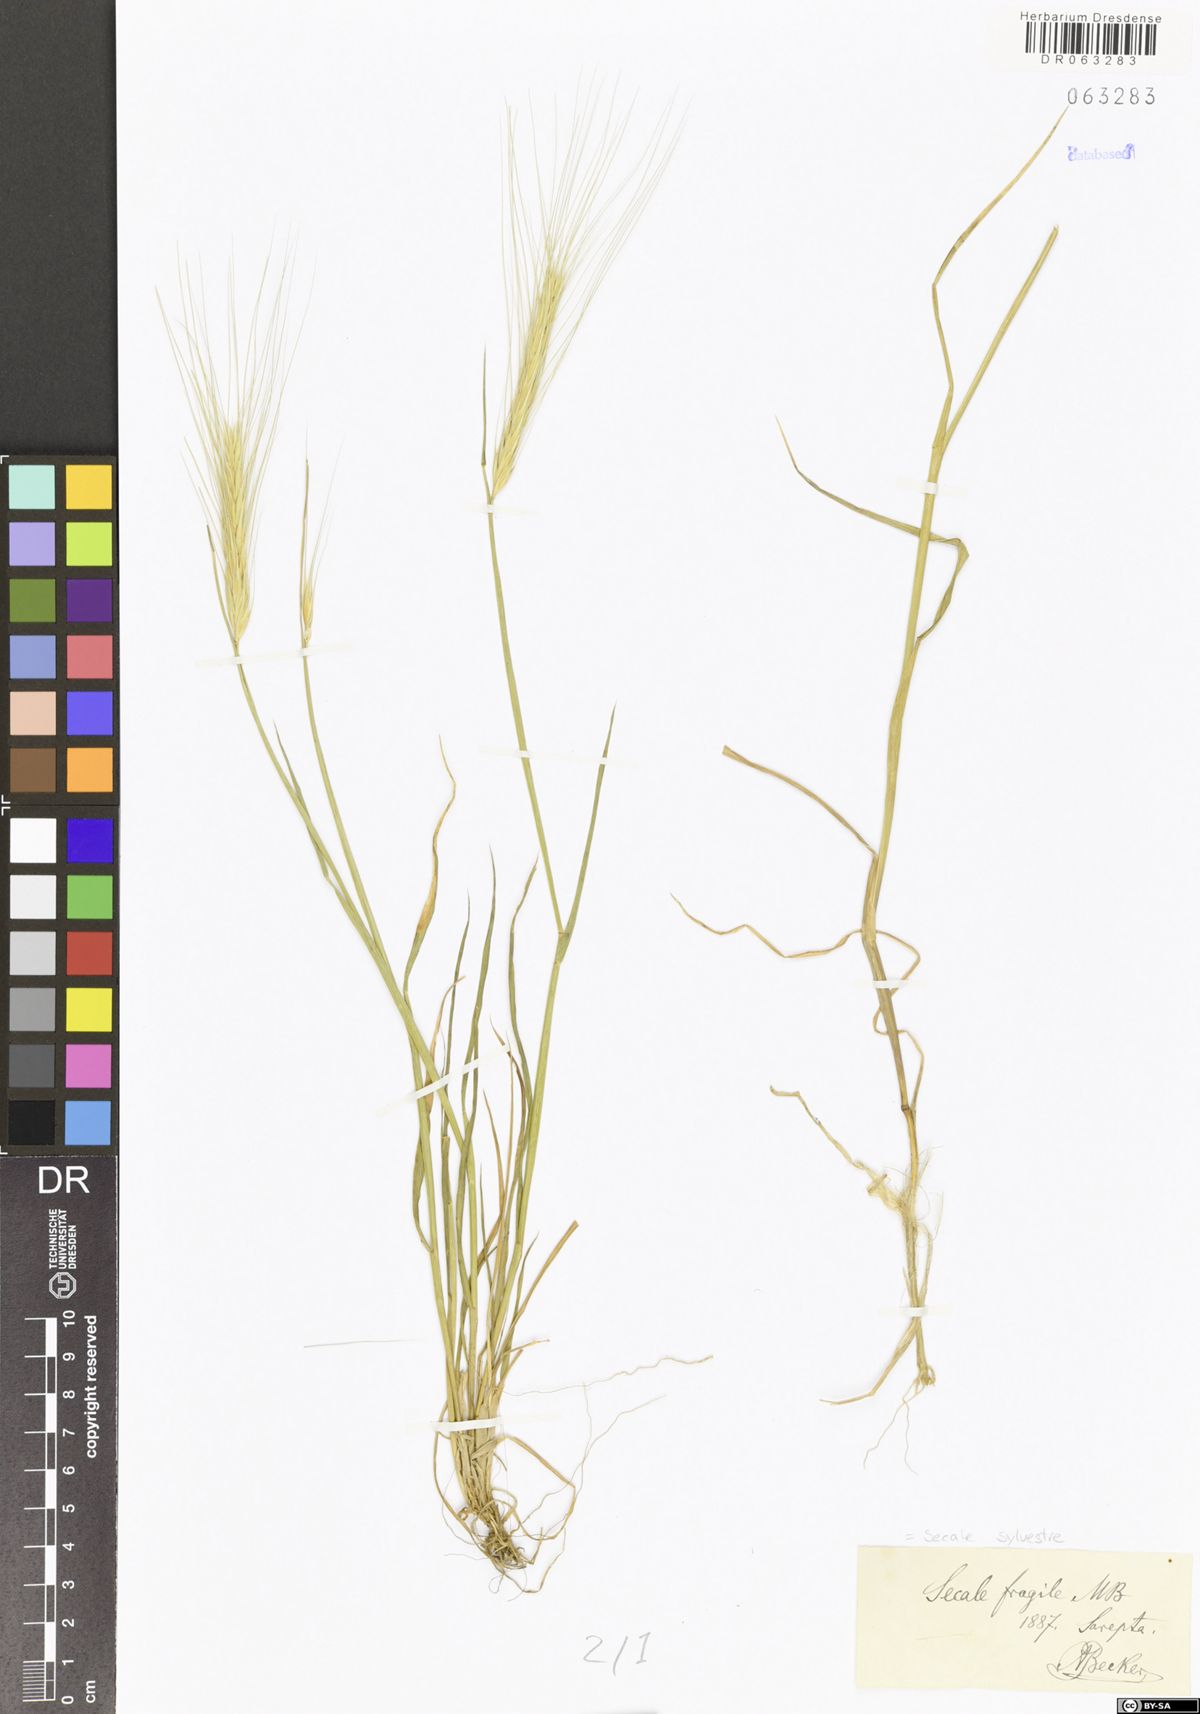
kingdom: Plantae
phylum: Tracheophyta
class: Liliopsida
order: Poales
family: Poaceae
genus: Secale
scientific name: Secale sylvestre
